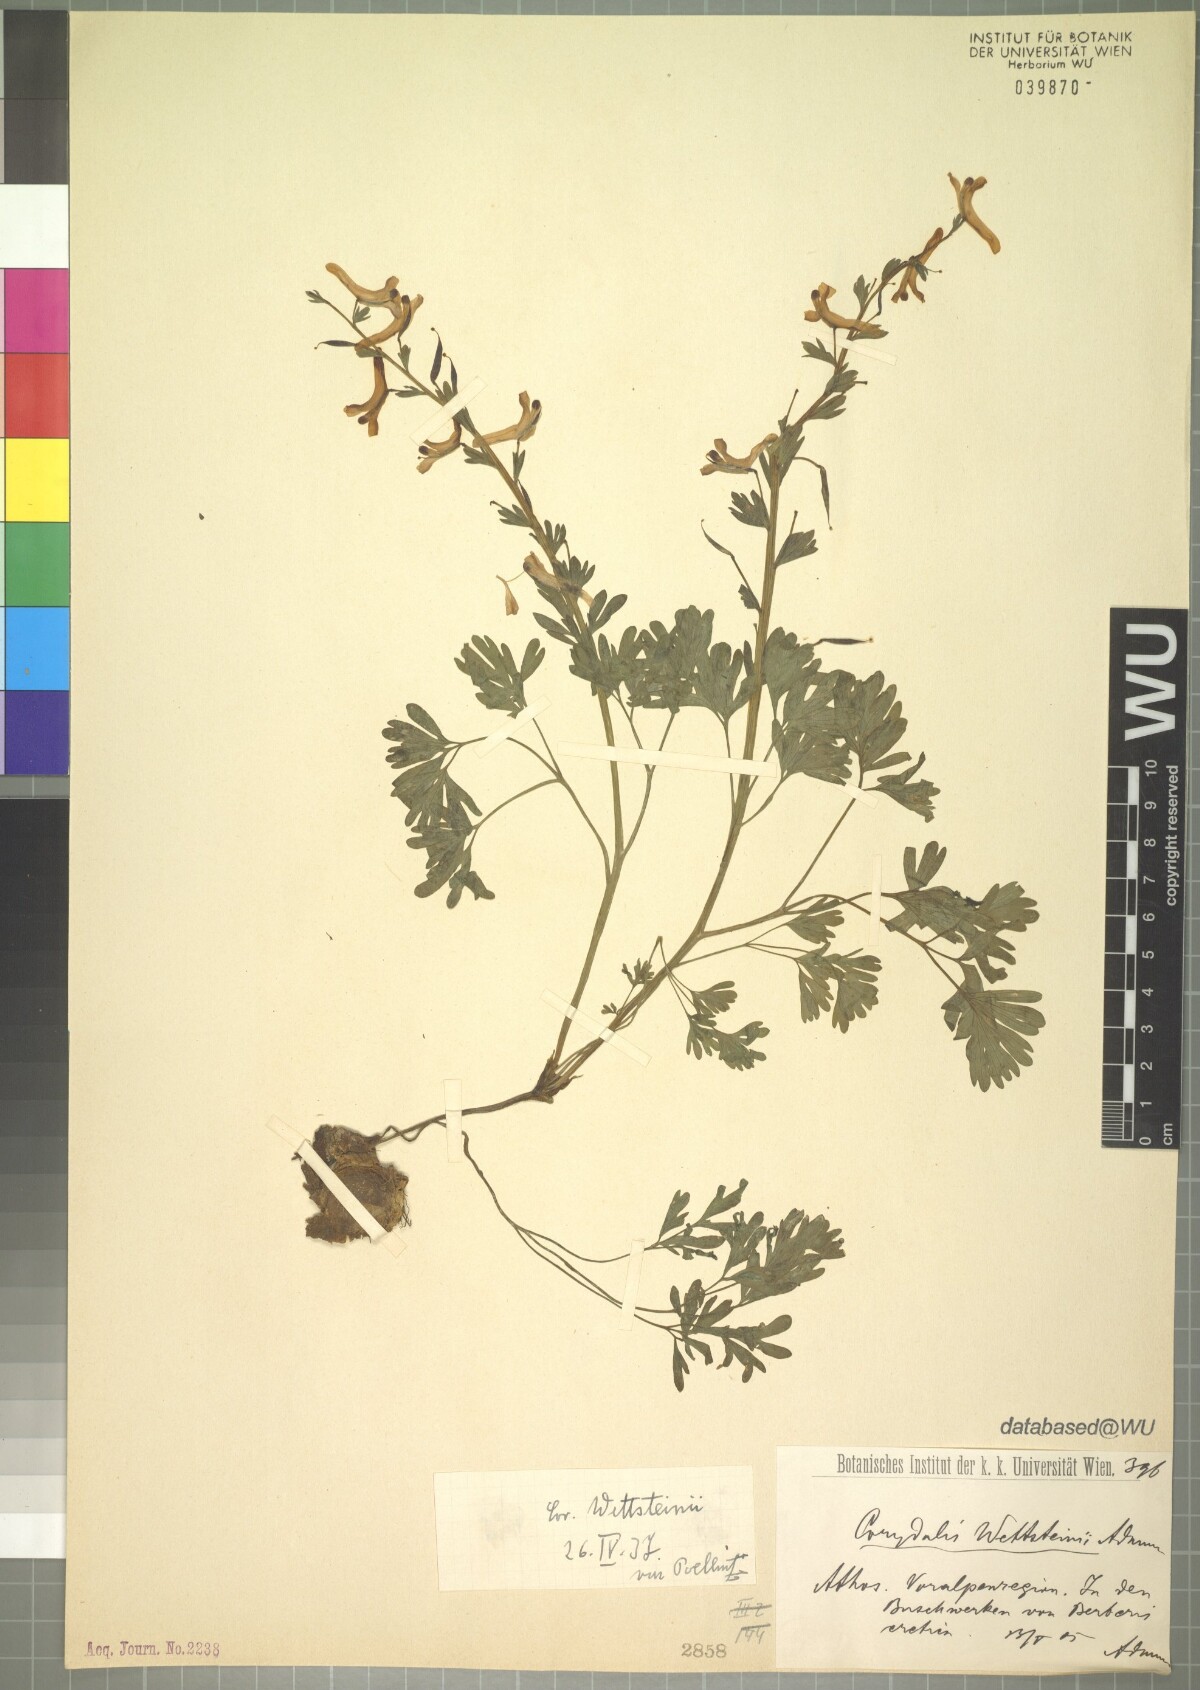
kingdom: Plantae
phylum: Tracheophyta
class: Magnoliopsida
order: Ranunculales
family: Papaveraceae
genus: Corydalis
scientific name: Corydalis integra
